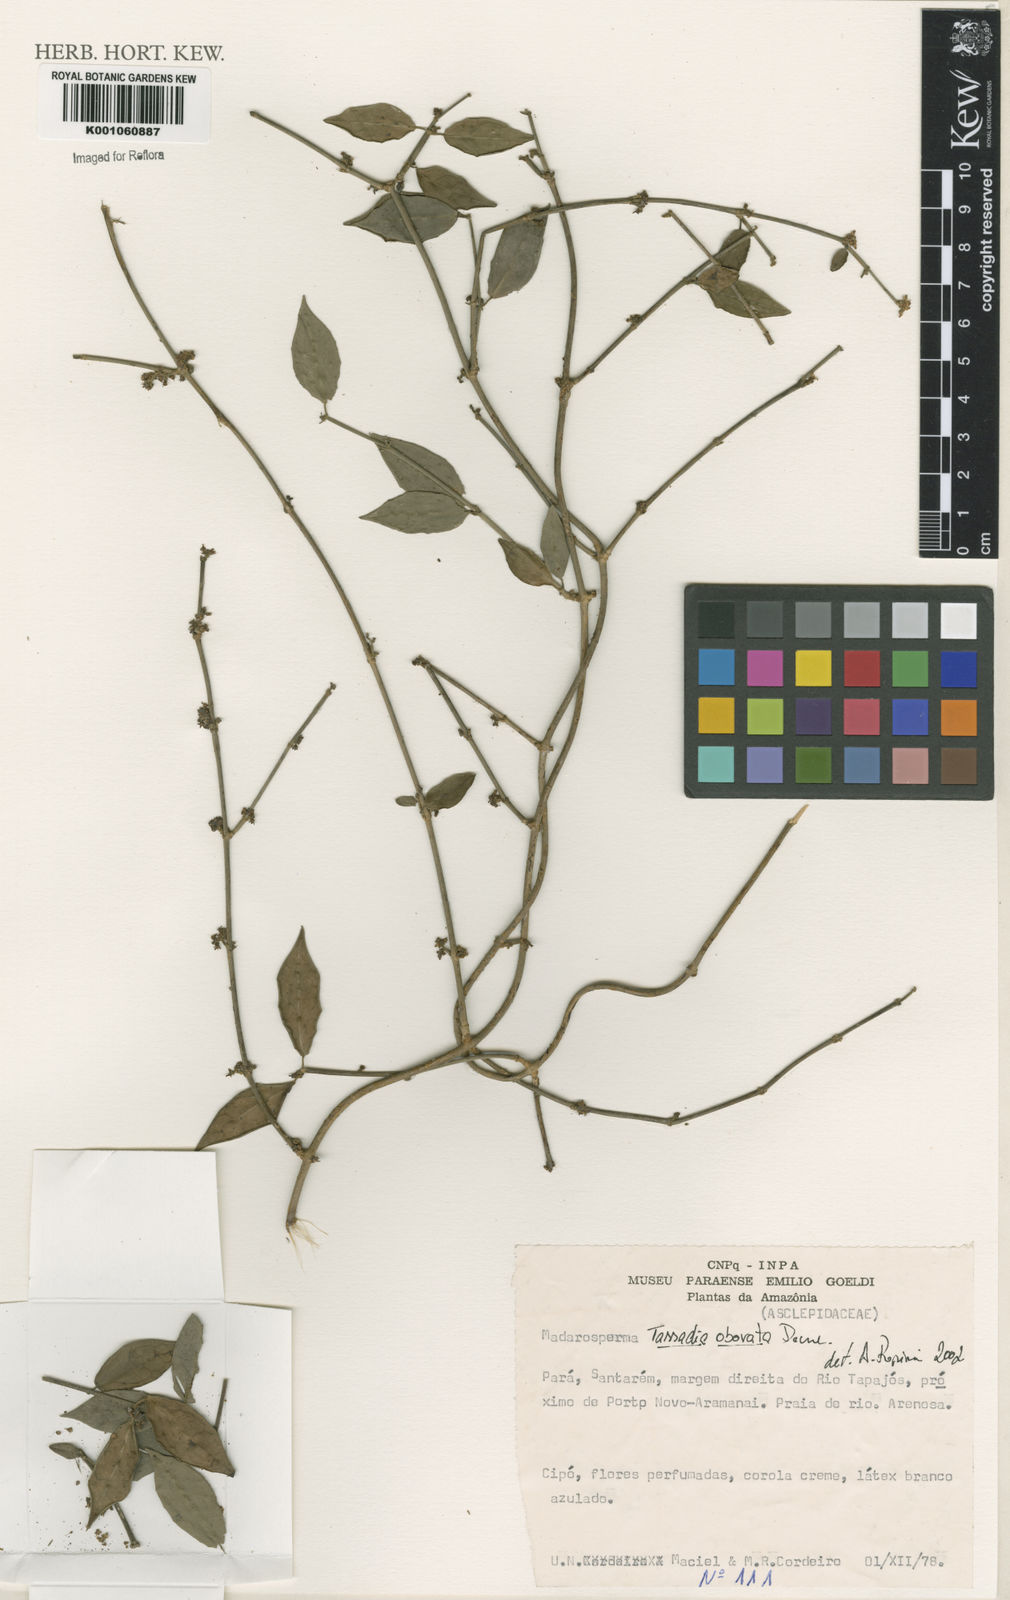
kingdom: Plantae
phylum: Tracheophyta
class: Magnoliopsida
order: Gentianales
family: Apocynaceae
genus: Tassadia
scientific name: Tassadia obovata
